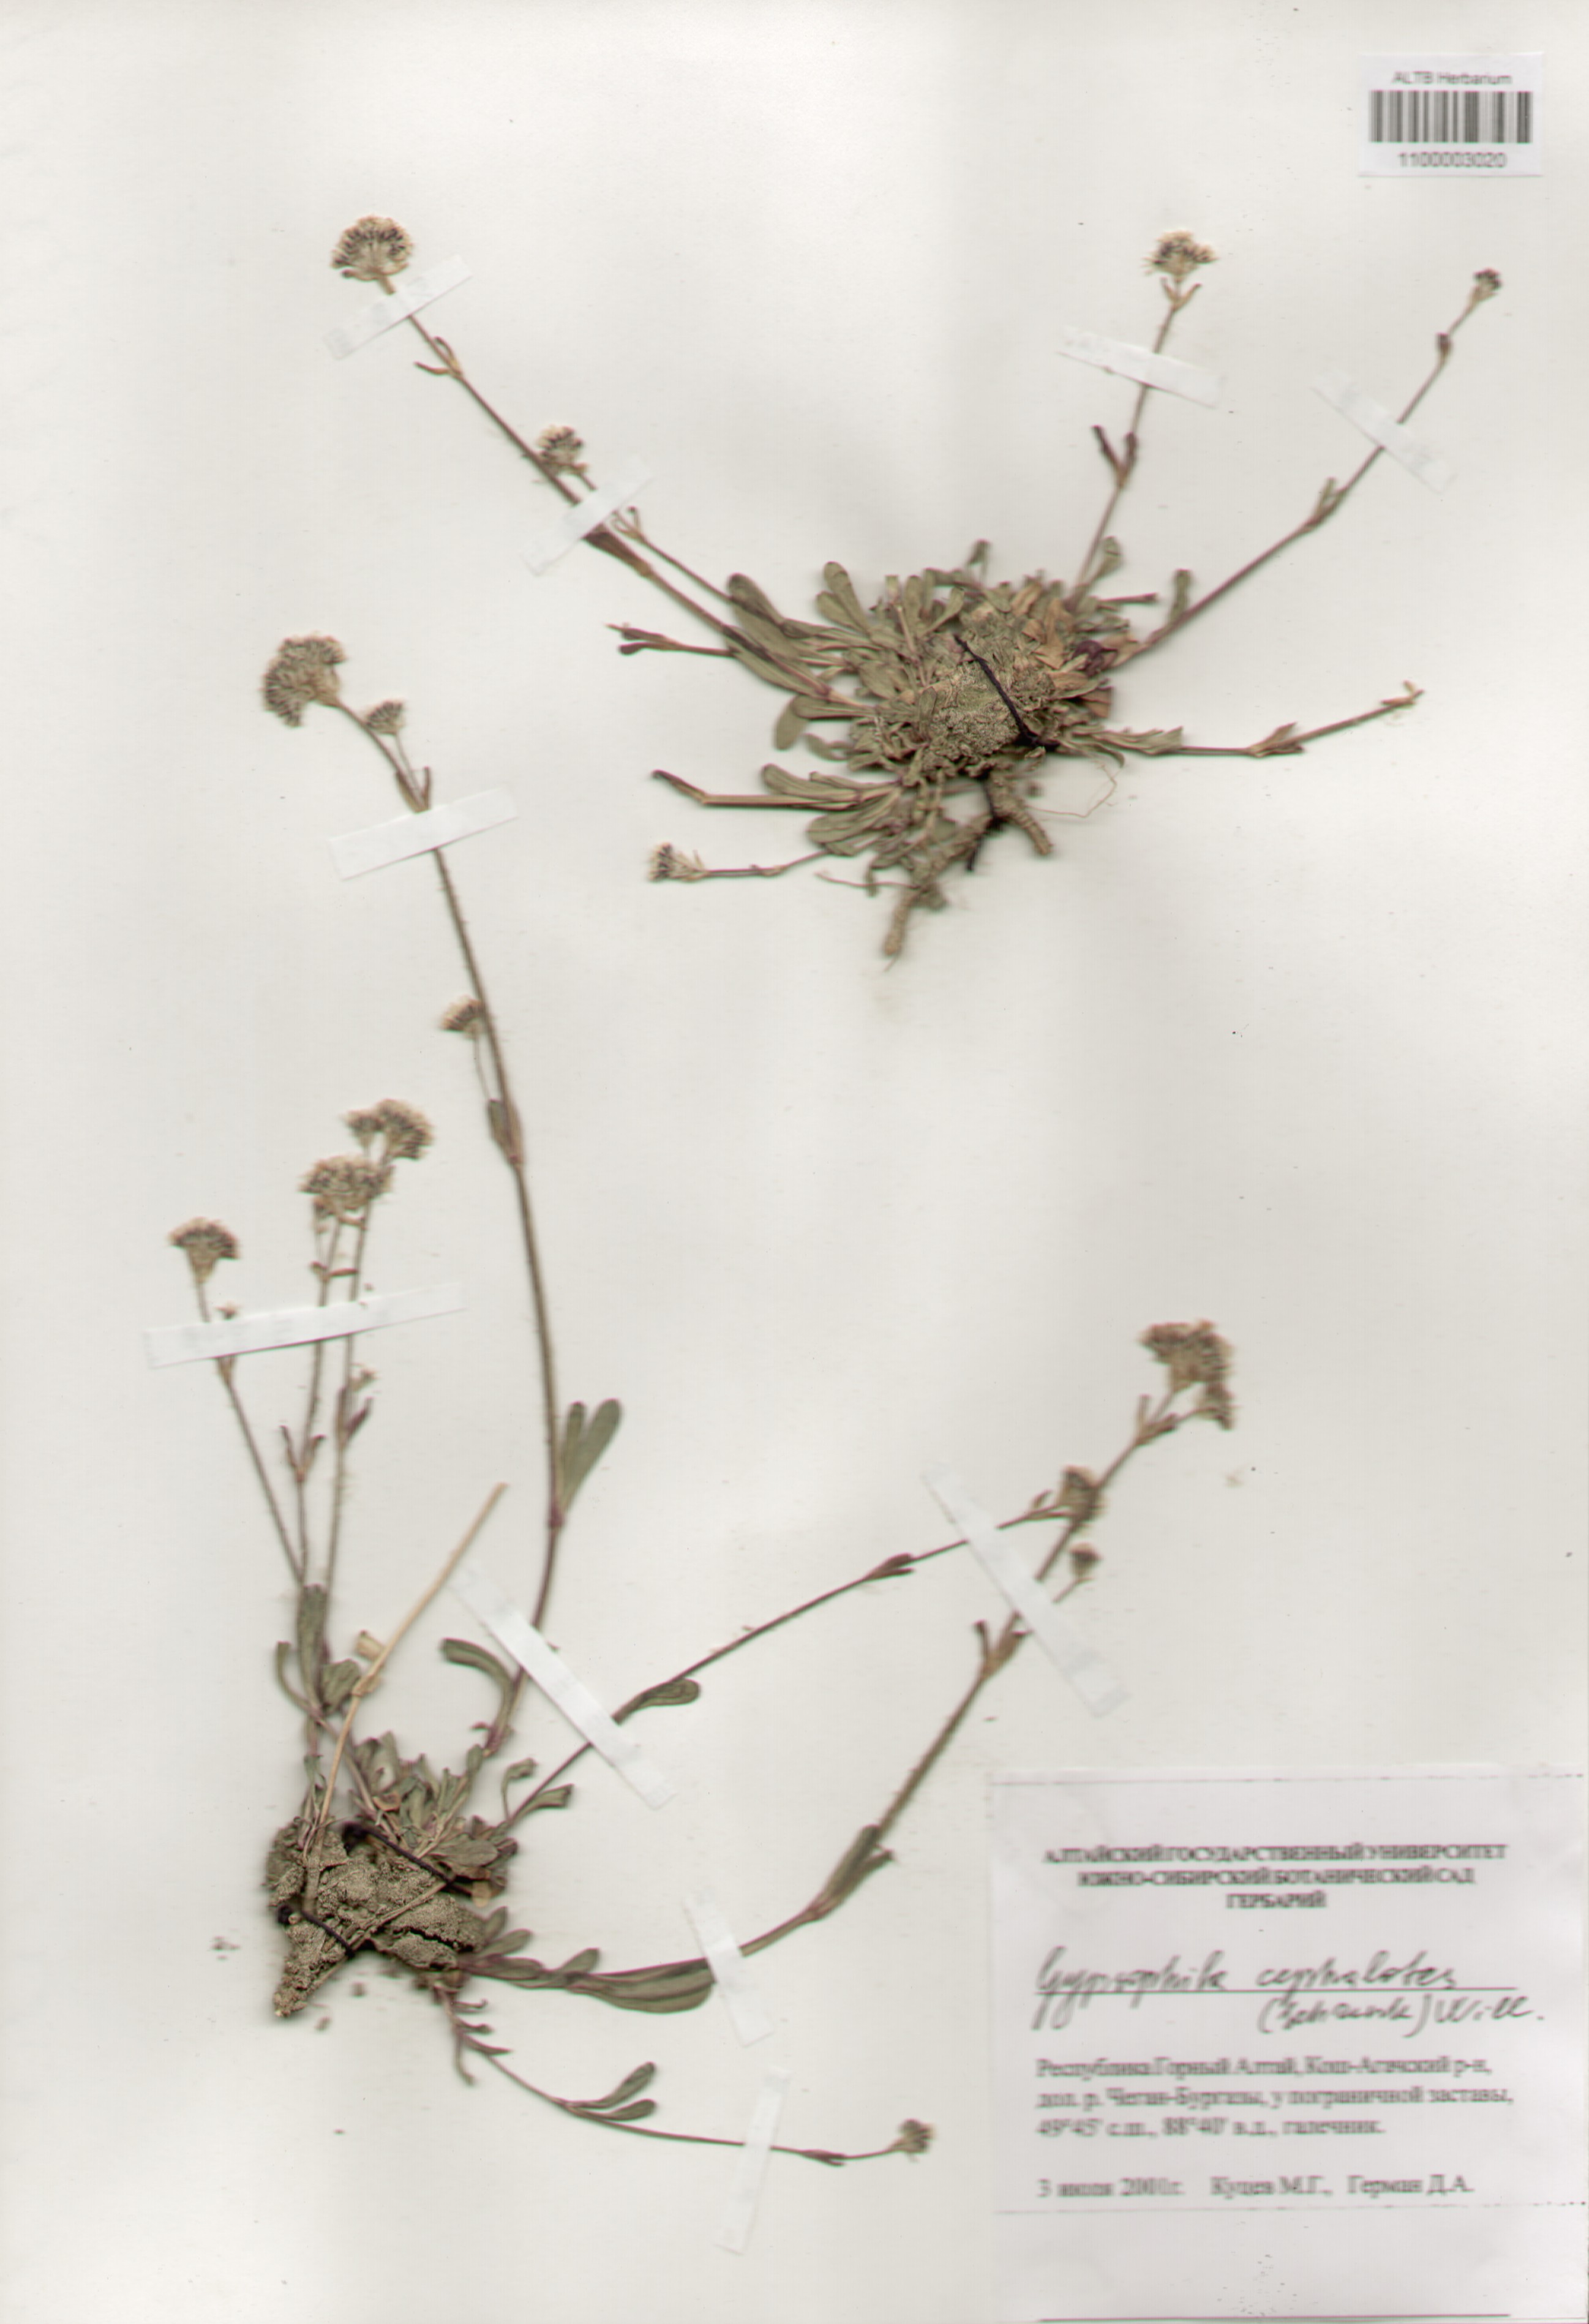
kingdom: Plantae
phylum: Tracheophyta
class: Magnoliopsida
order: Caryophyllales
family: Caryophyllaceae
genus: Gypsophila
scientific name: Gypsophila cephalotes
